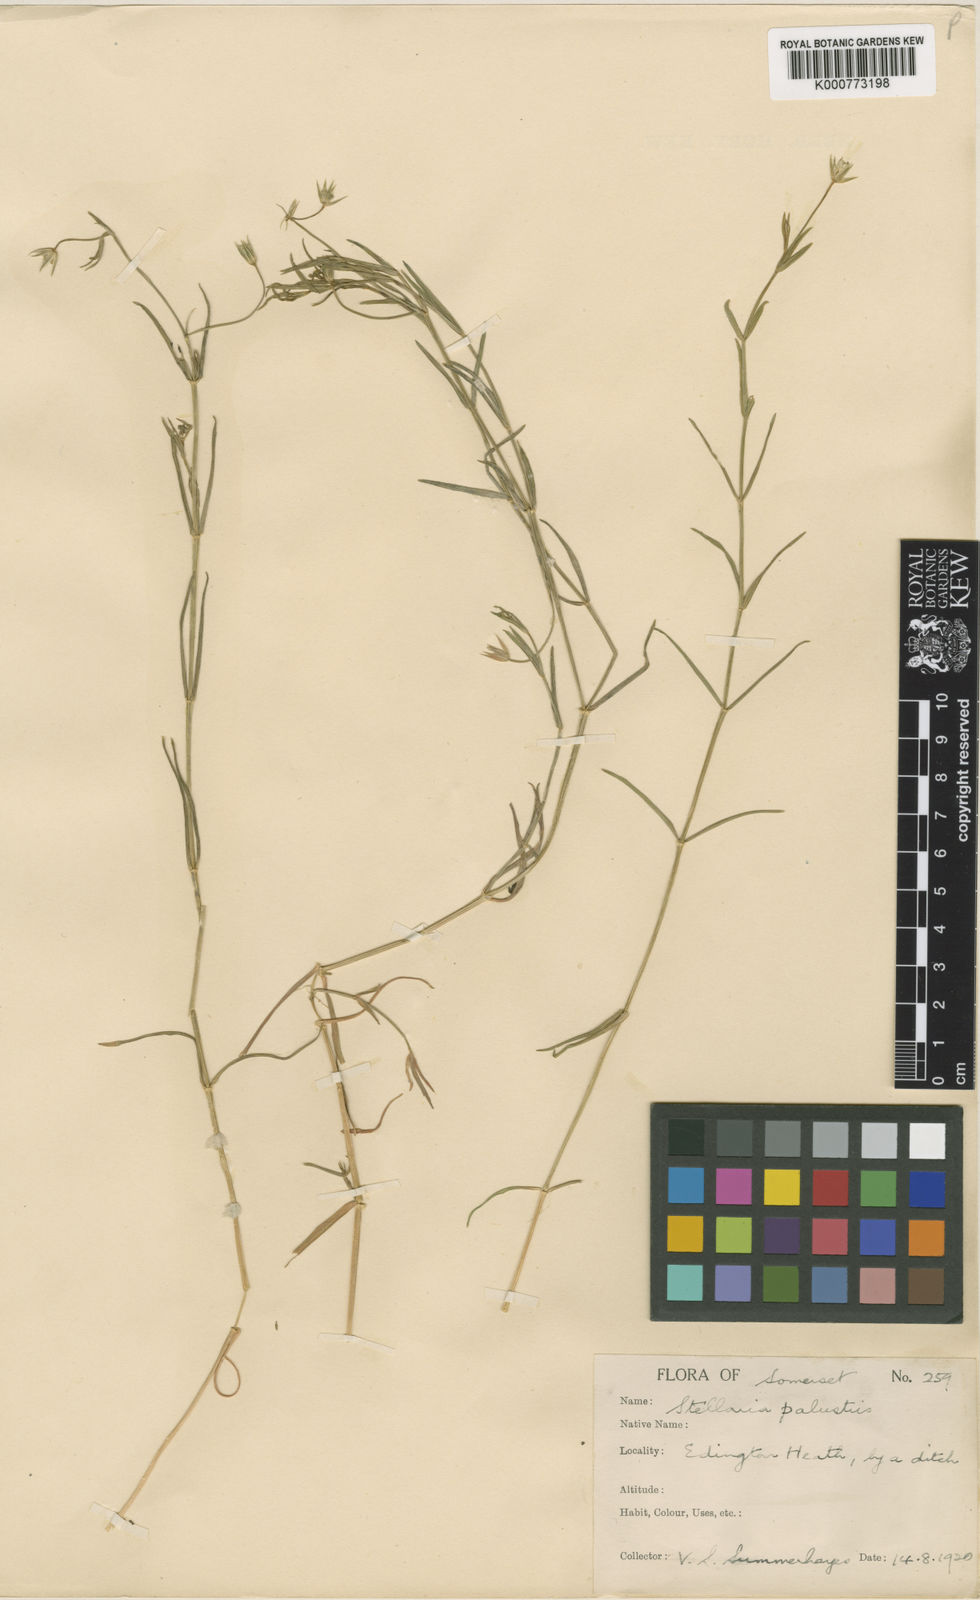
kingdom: Plantae
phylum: Tracheophyta
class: Magnoliopsida
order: Caryophyllales
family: Caryophyllaceae
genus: Stellaria
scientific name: Stellaria
